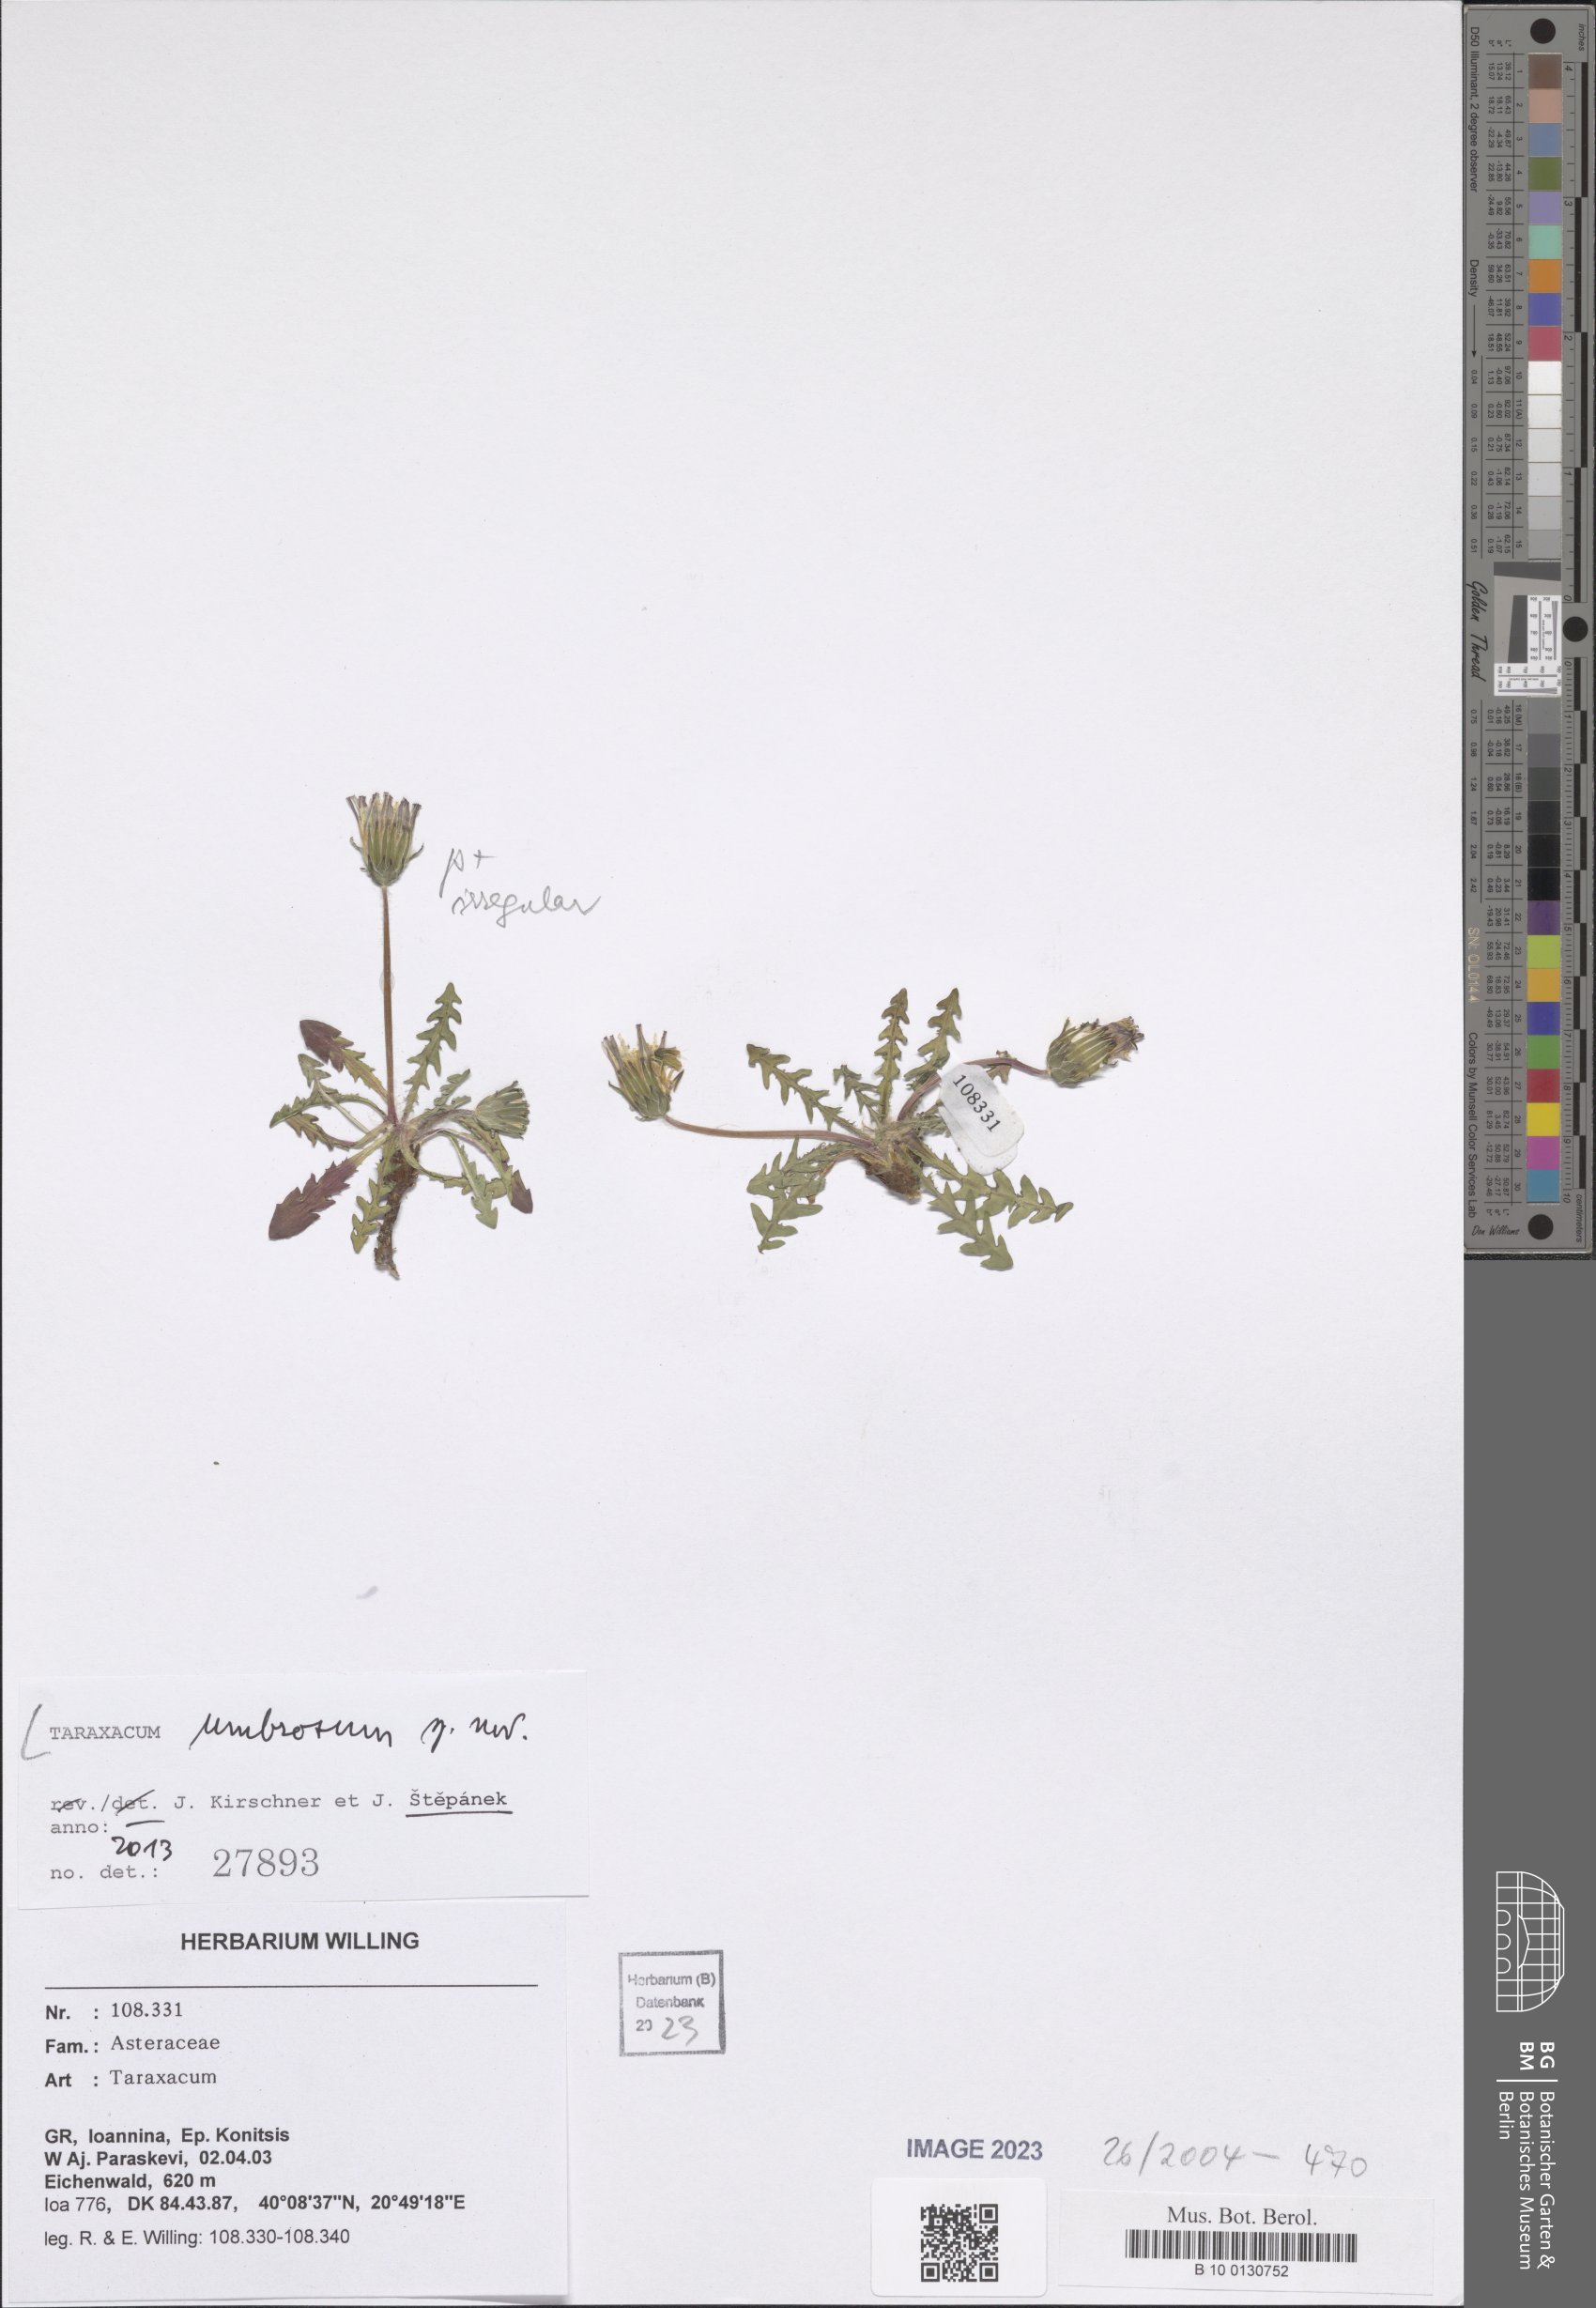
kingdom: Plantae
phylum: Tracheophyta
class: Magnoliopsida
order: Asterales
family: Asteraceae
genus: Taraxacum
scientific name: Taraxacum umbrosum
